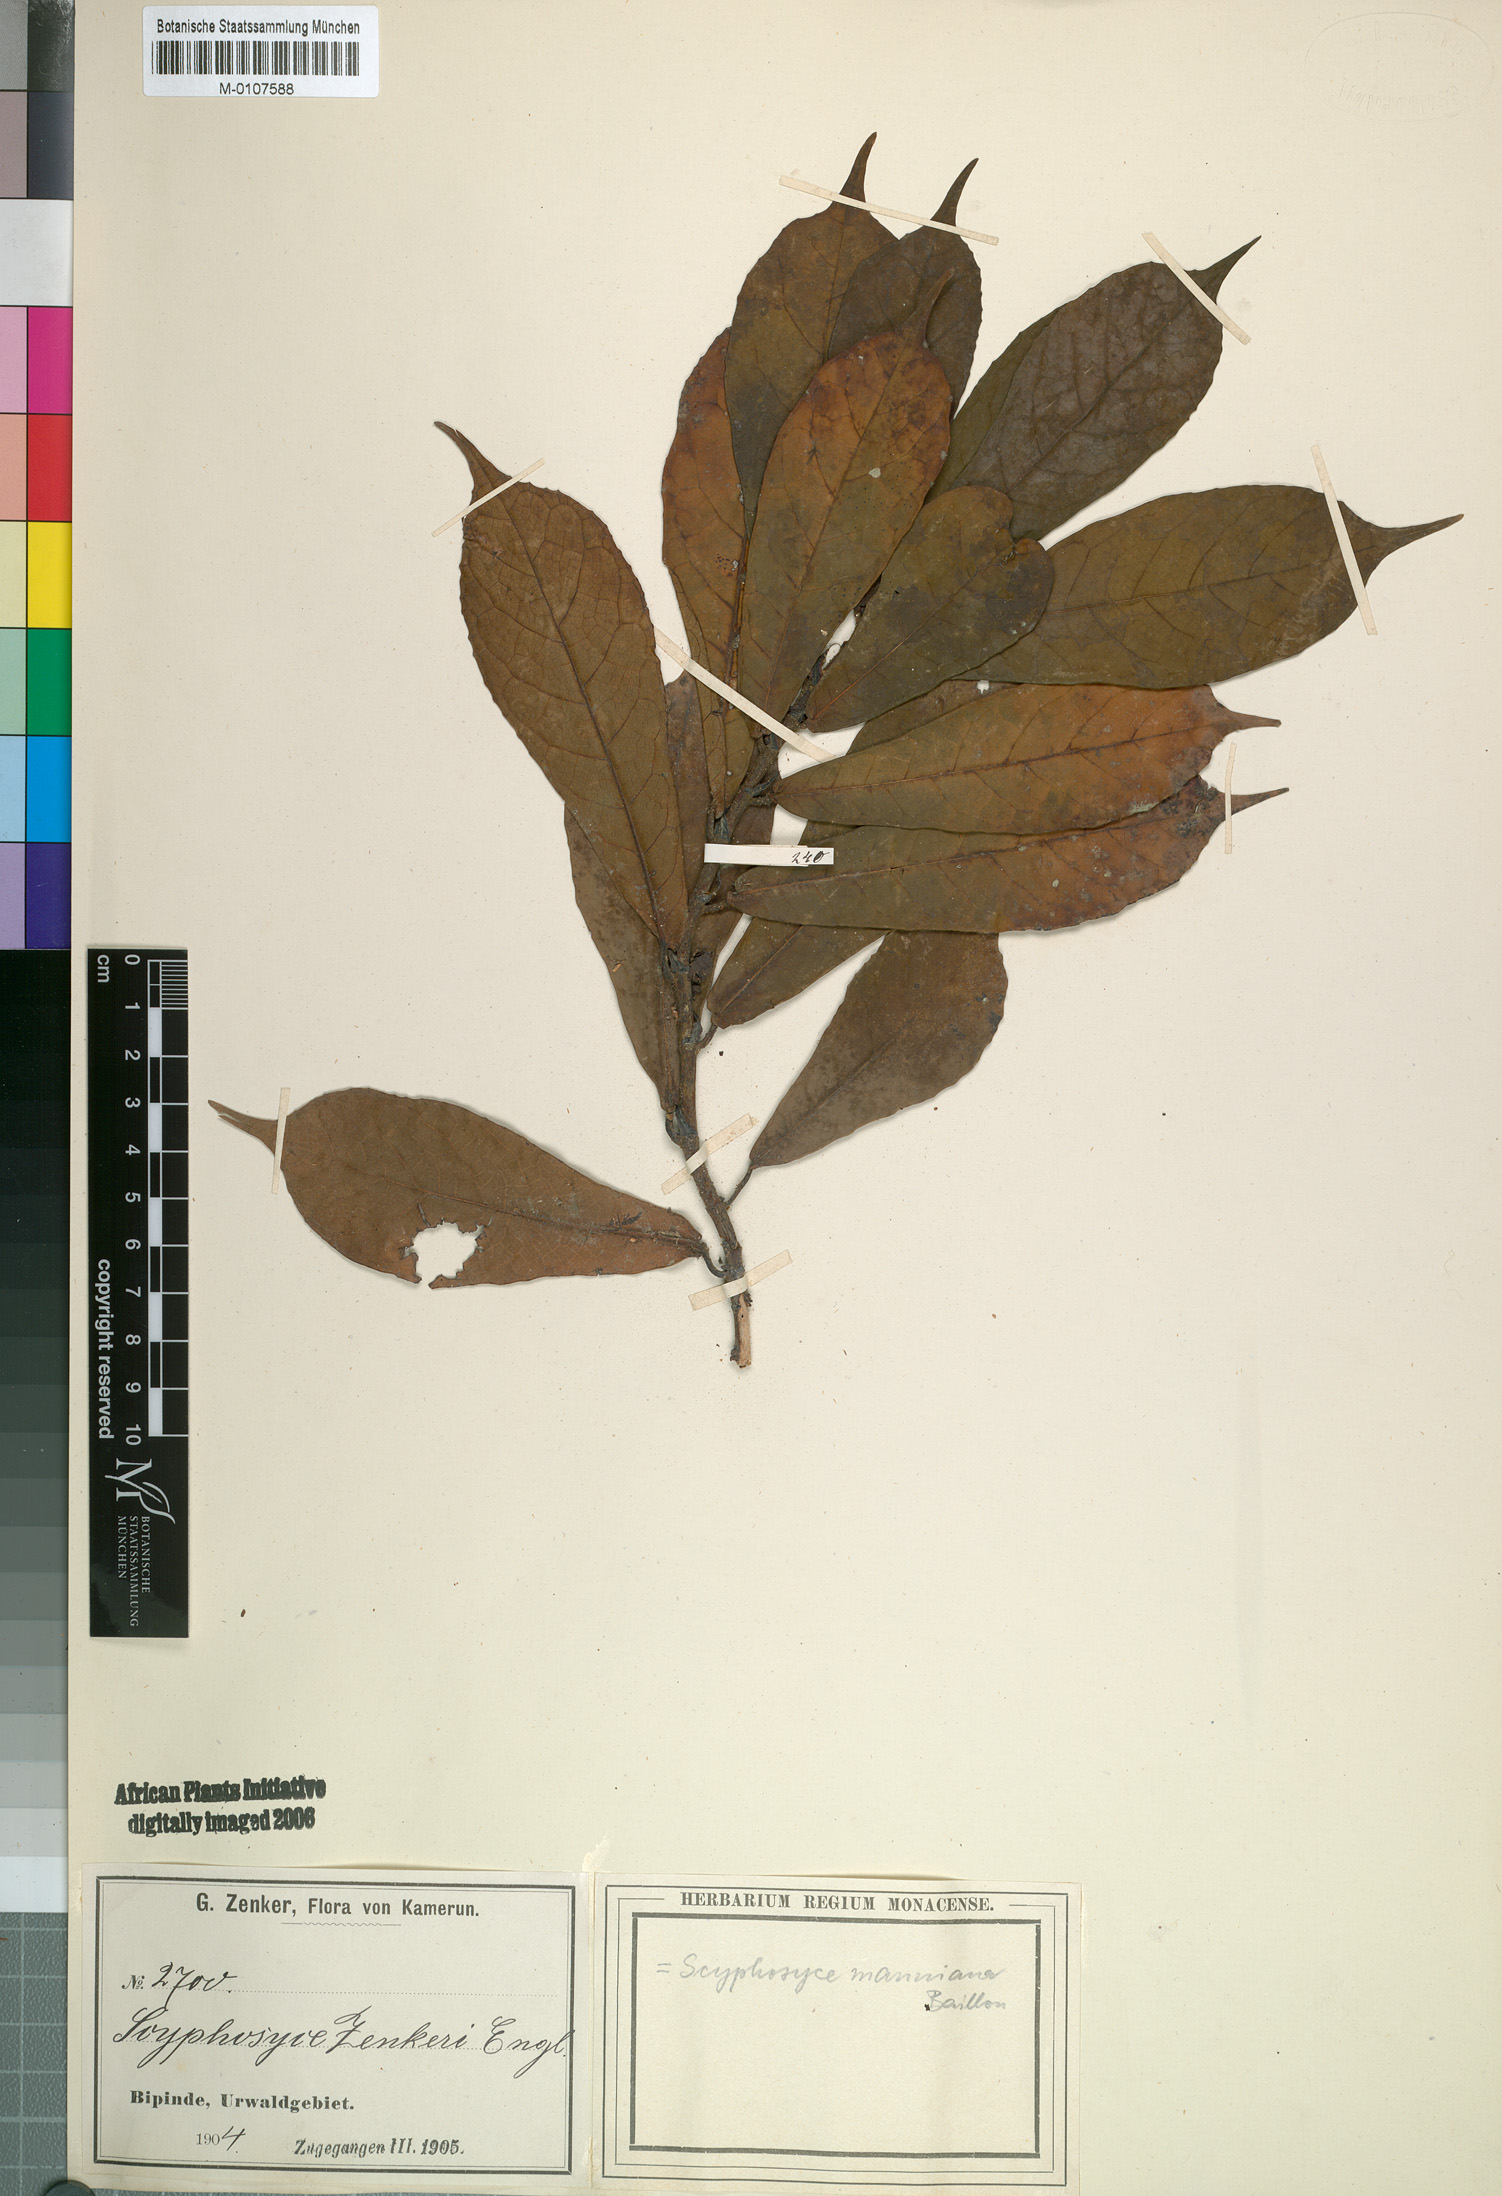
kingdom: Plantae
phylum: Tracheophyta
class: Magnoliopsida
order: Rosales
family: Moraceae
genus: Scyphosyce
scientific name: Scyphosyce manniana
